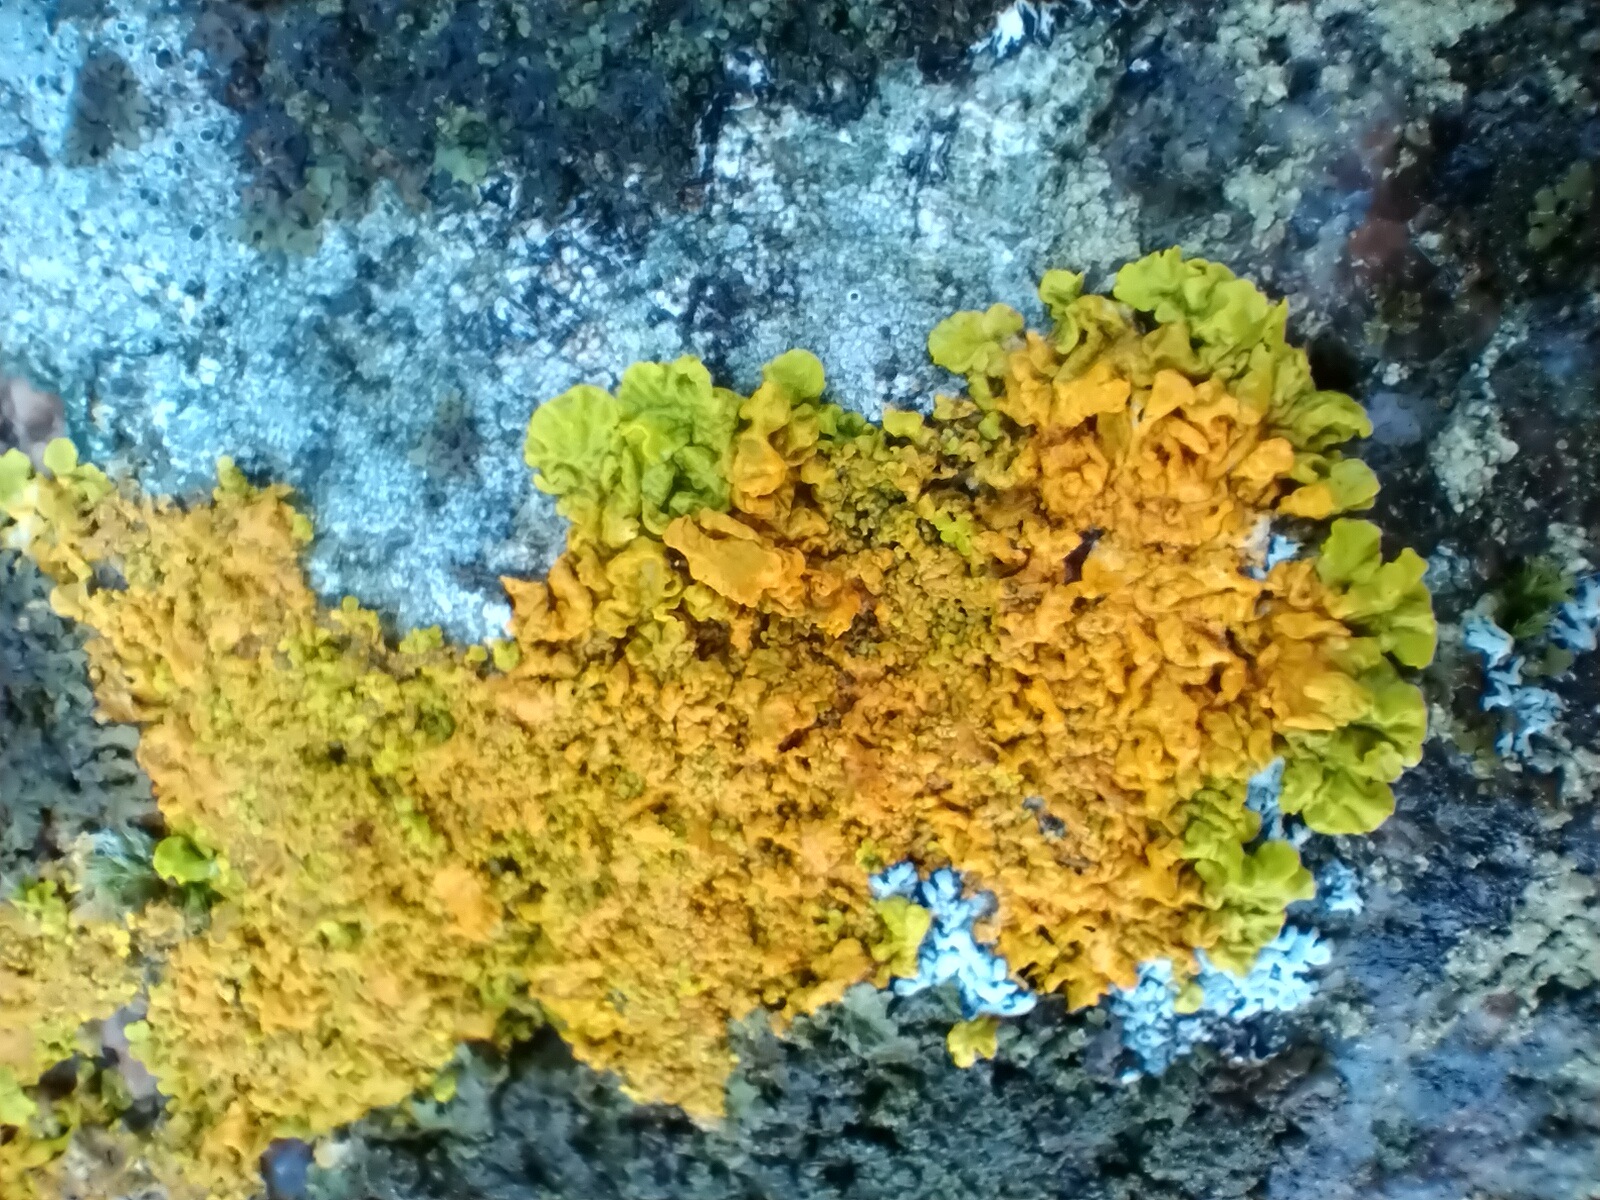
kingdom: Fungi
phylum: Ascomycota
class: Lecanoromycetes
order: Teloschistales
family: Teloschistaceae
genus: Xanthoria
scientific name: Xanthoria calcicola
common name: vortet væggelav
